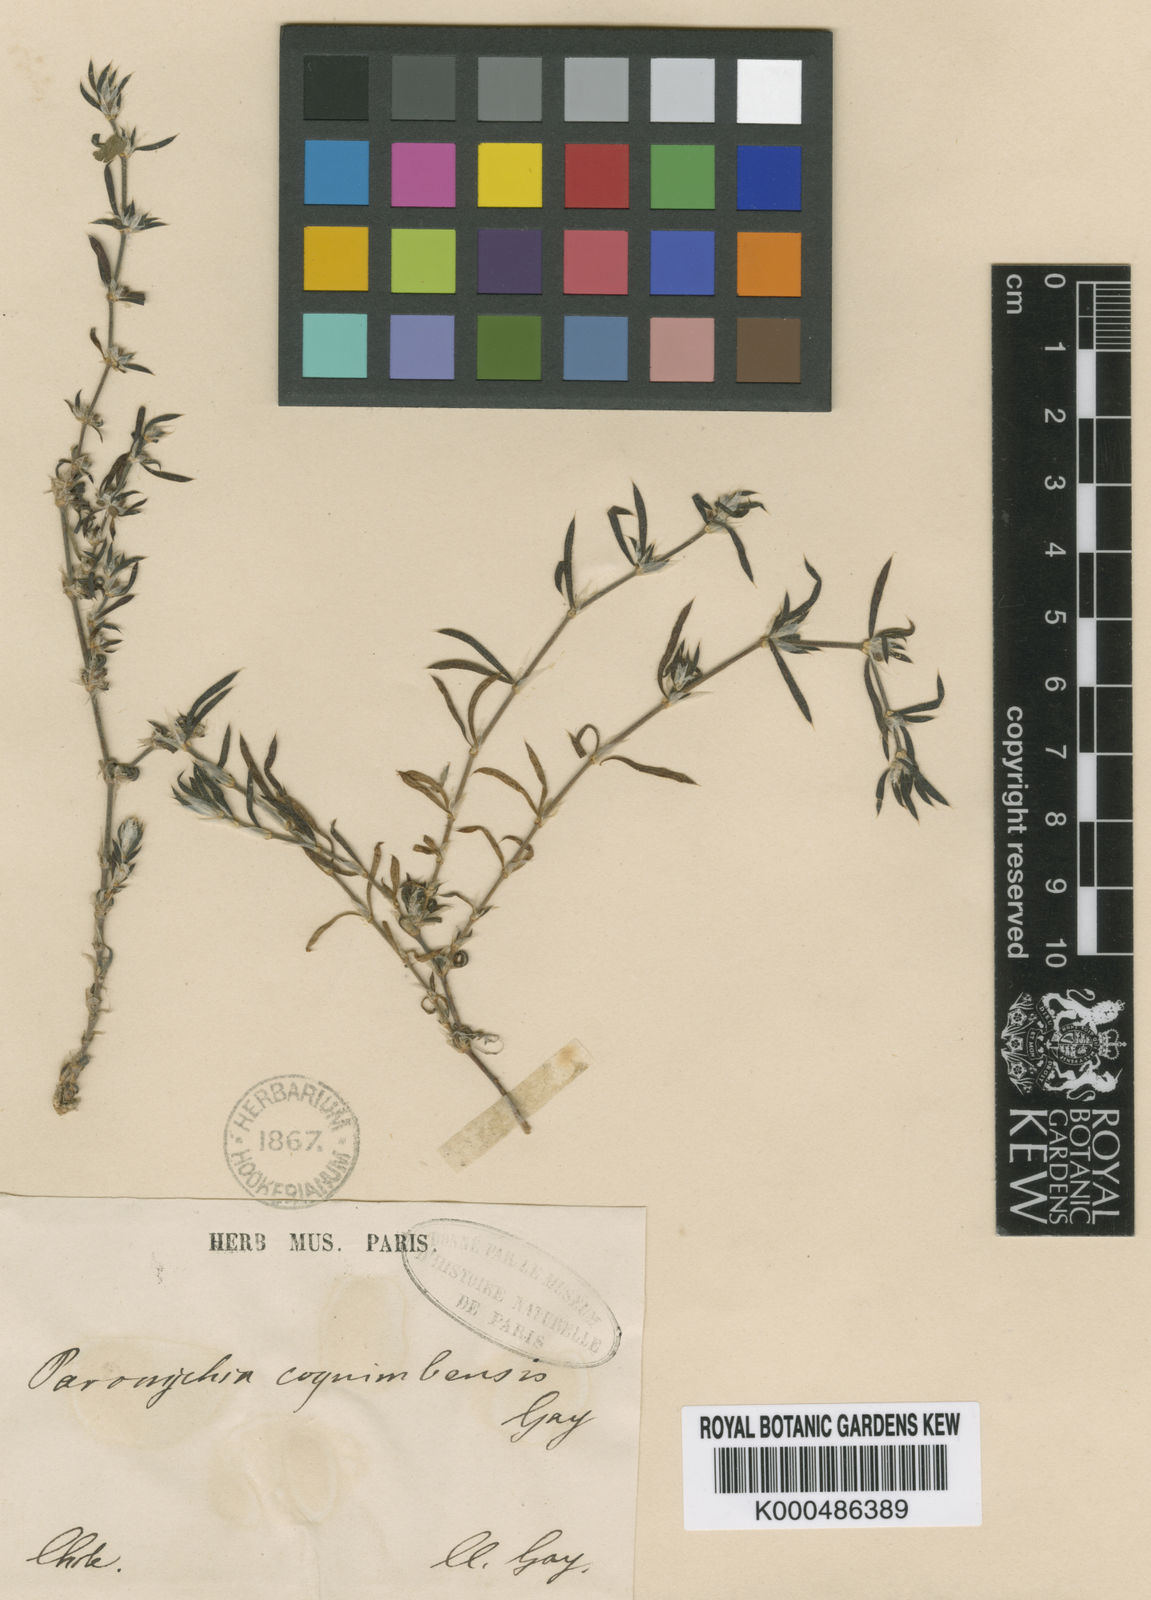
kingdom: Plantae
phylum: Tracheophyta
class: Magnoliopsida
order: Caryophyllales
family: Caryophyllaceae
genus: Paronychia
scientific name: Paronychia coquimbensis
